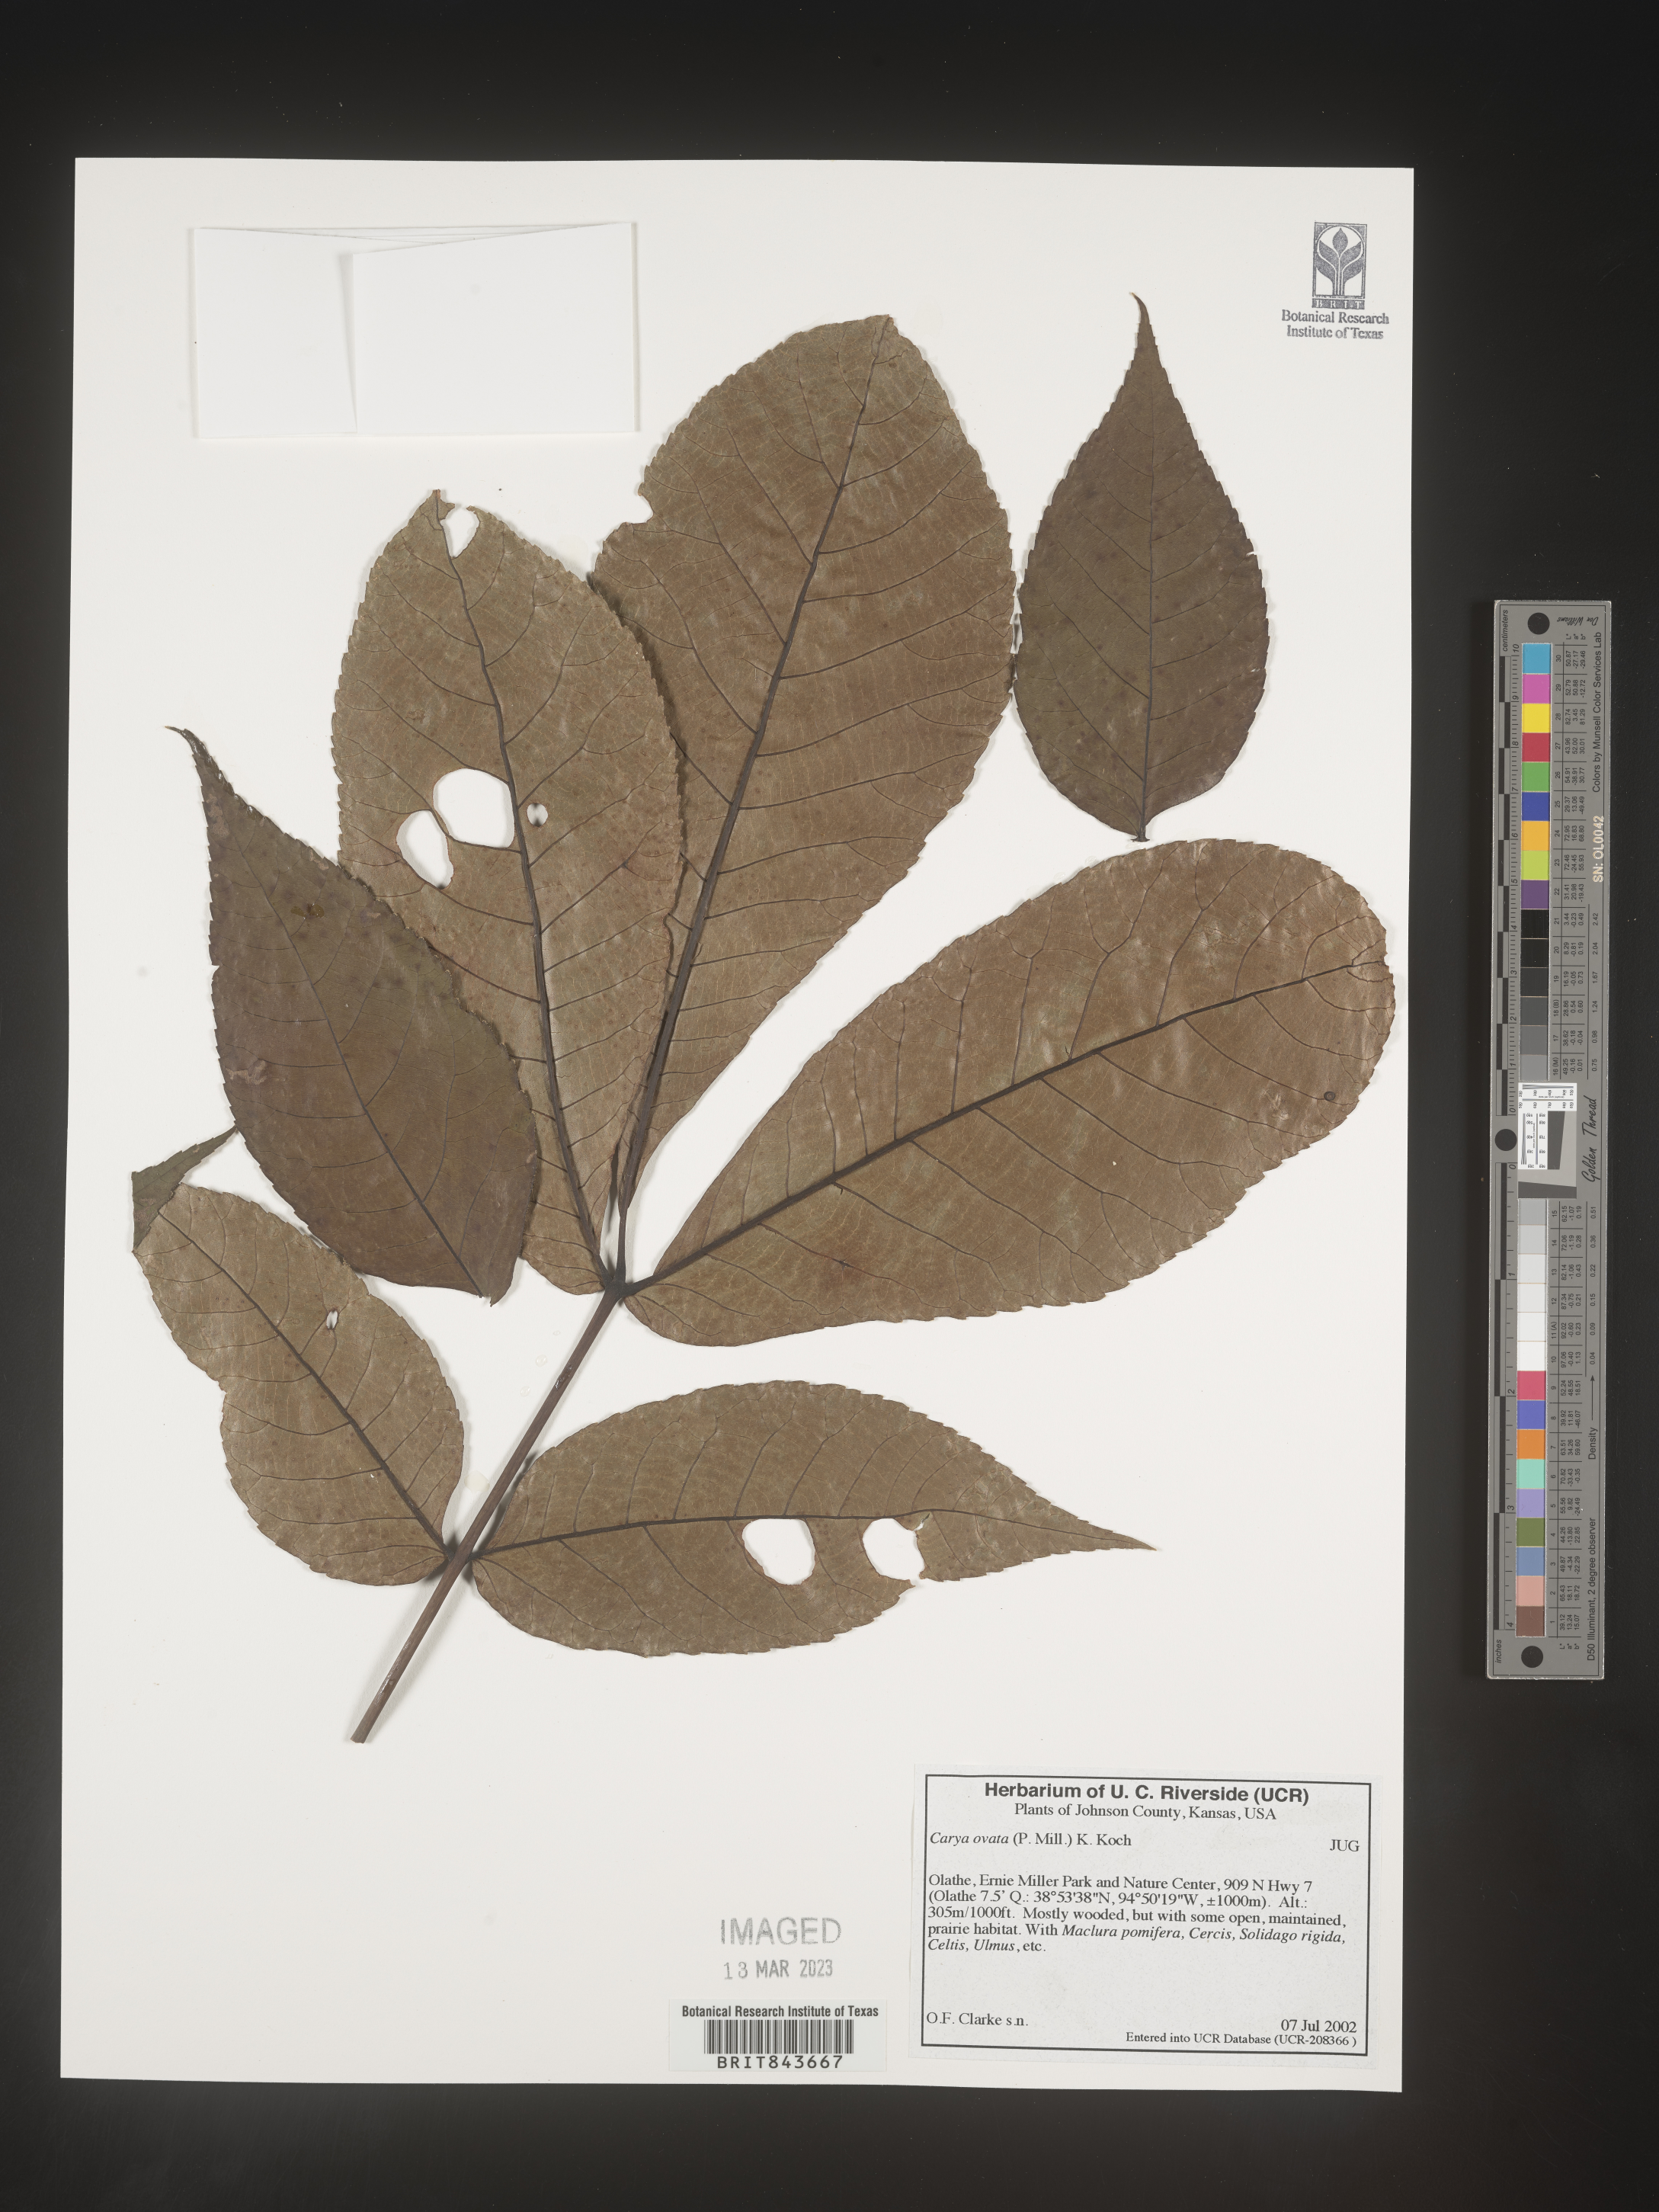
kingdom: Plantae
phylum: Tracheophyta
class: Magnoliopsida
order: Fagales
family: Juglandaceae
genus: Carya
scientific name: Carya ovata
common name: Shagbark hickory
